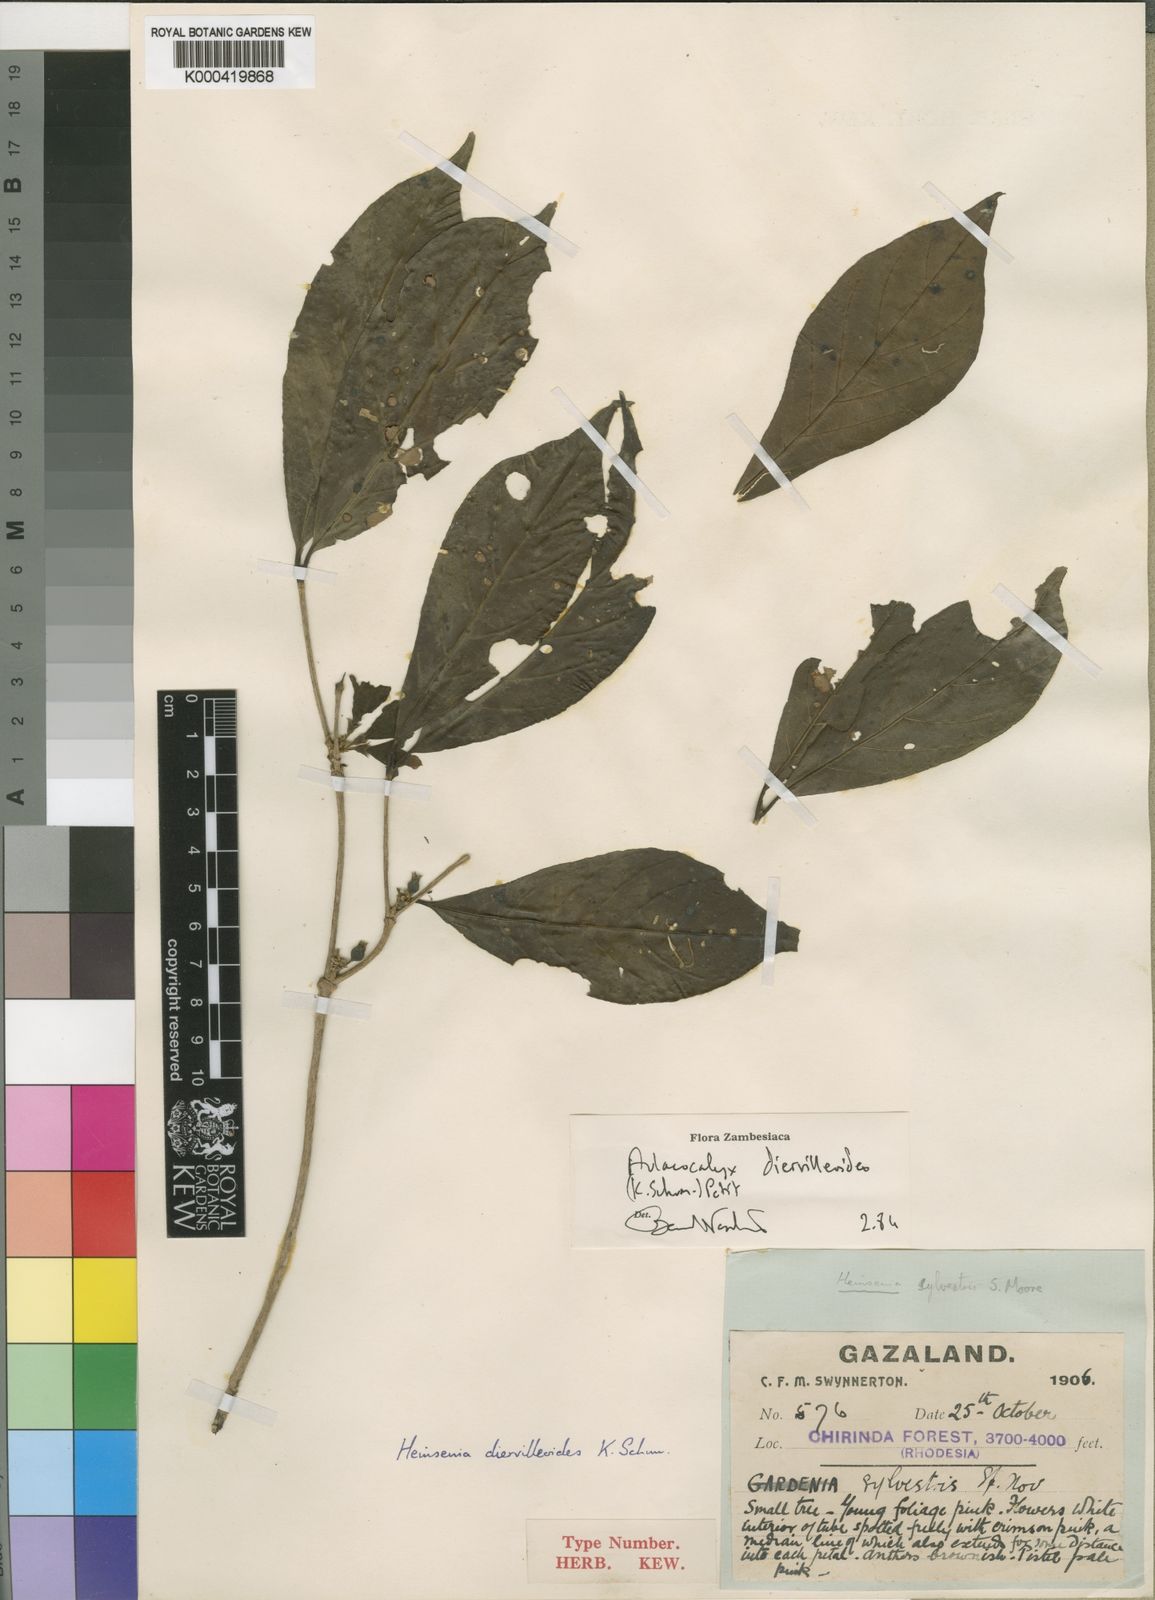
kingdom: Plantae
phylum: Tracheophyta
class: Magnoliopsida
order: Gentianales
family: Rubiaceae
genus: Heinsenia
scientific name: Heinsenia diervilleoides
